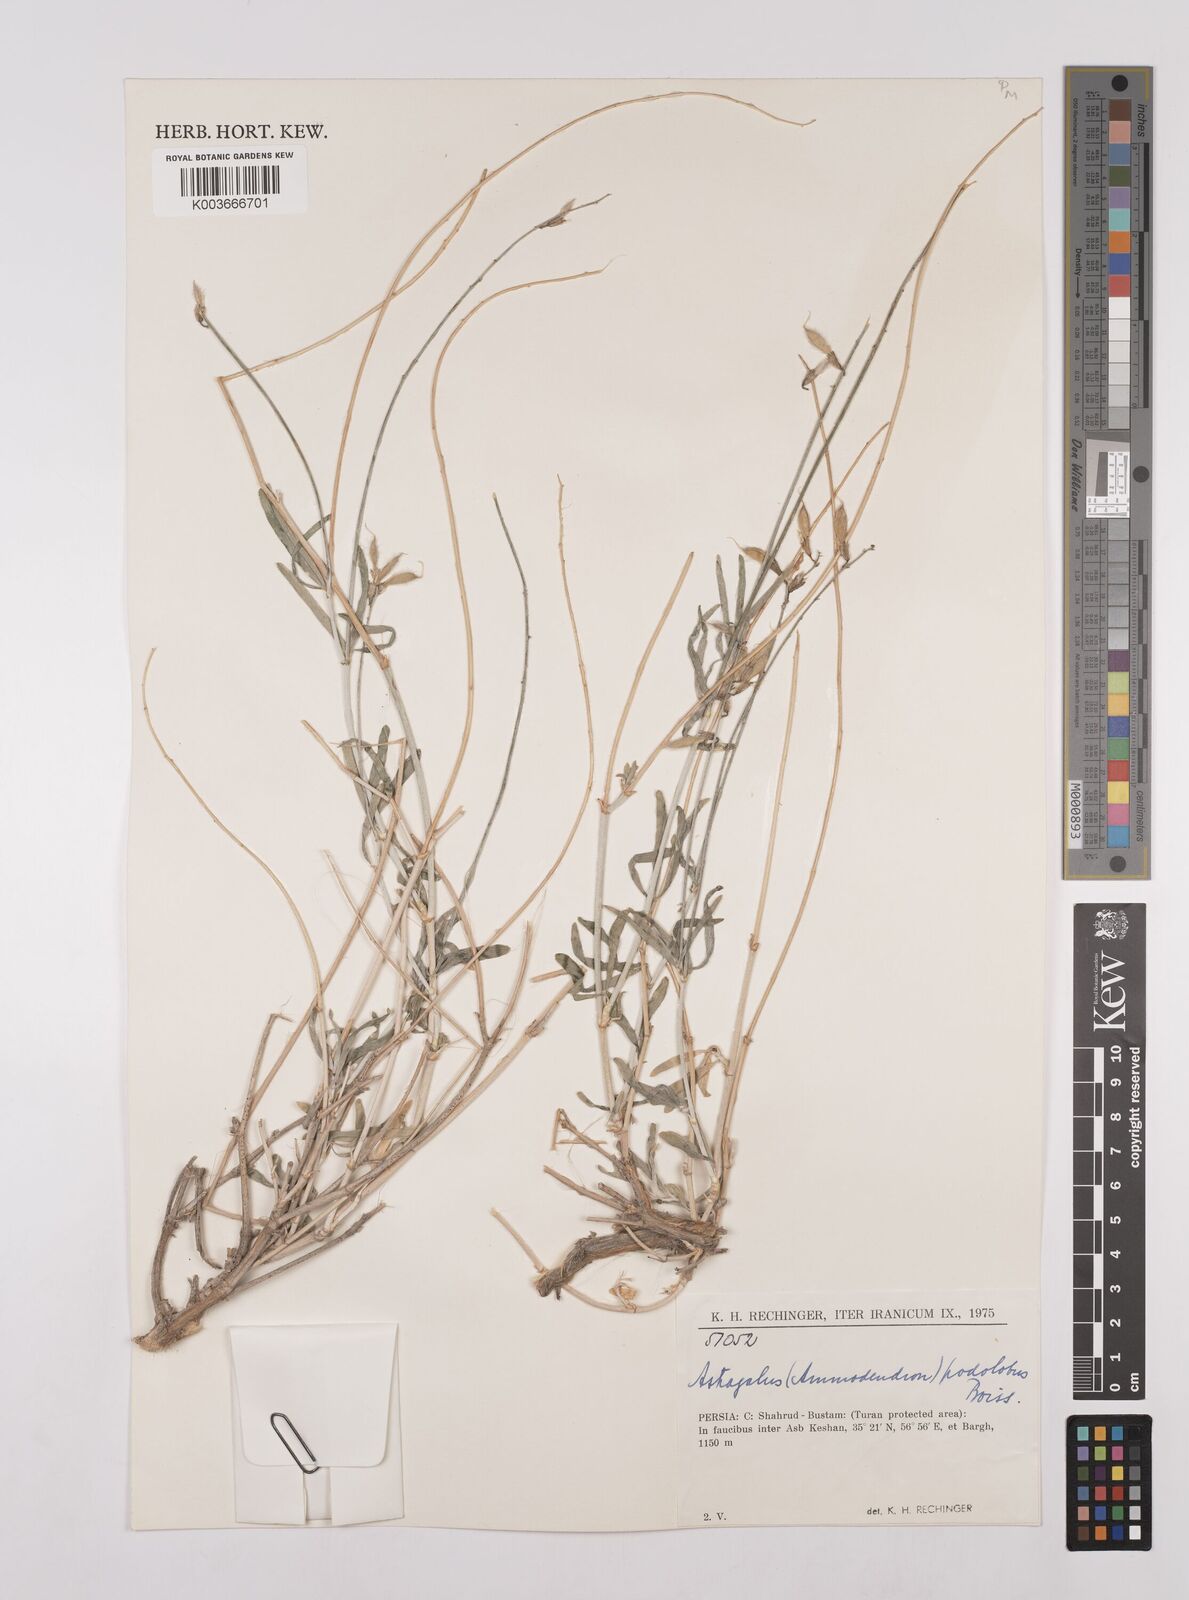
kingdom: Plantae
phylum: Tracheophyta
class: Magnoliopsida
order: Fabales
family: Fabaceae
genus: Astragalus
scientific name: Astragalus podolobus
